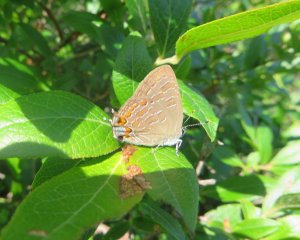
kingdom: Animalia
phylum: Arthropoda
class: Insecta
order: Lepidoptera
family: Lycaenidae
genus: Satyrium
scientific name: Satyrium liparops
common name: Striped Hairstreak
